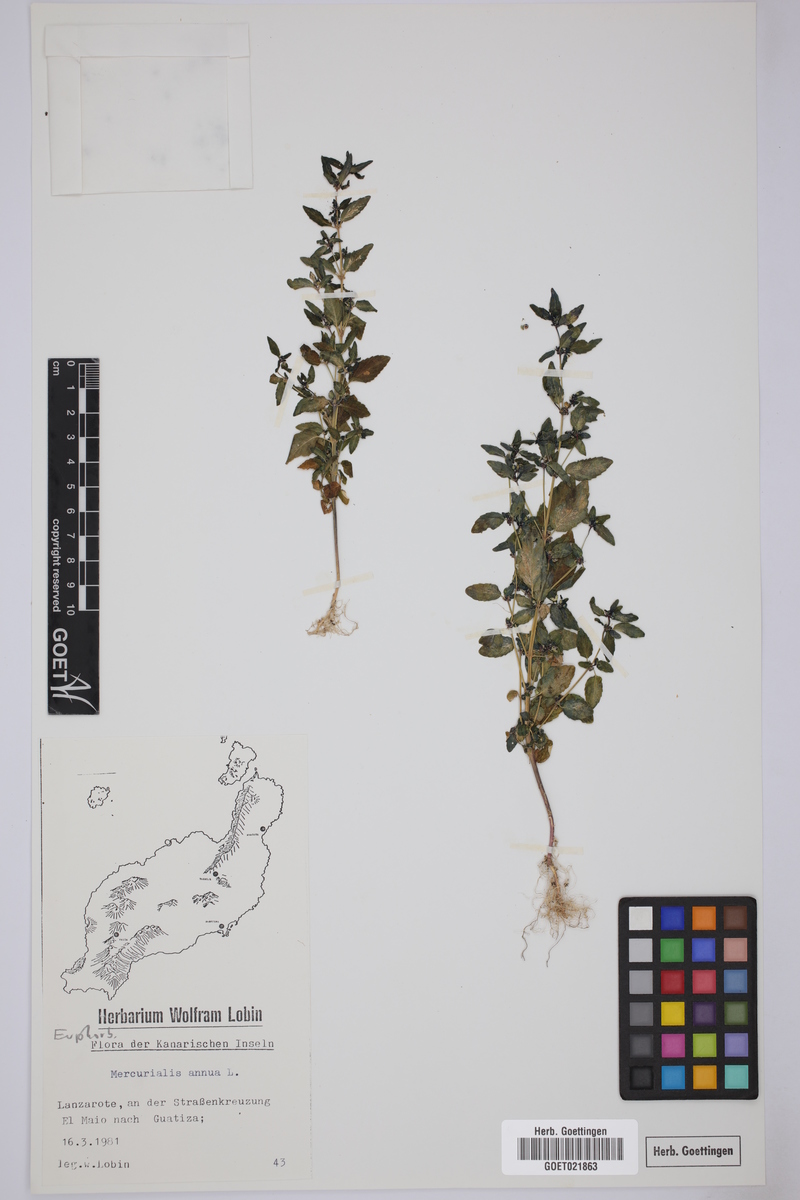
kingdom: Plantae
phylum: Tracheophyta
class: Magnoliopsida
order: Malpighiales
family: Euphorbiaceae
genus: Mercurialis
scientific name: Mercurialis annua
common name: Annual mercury
